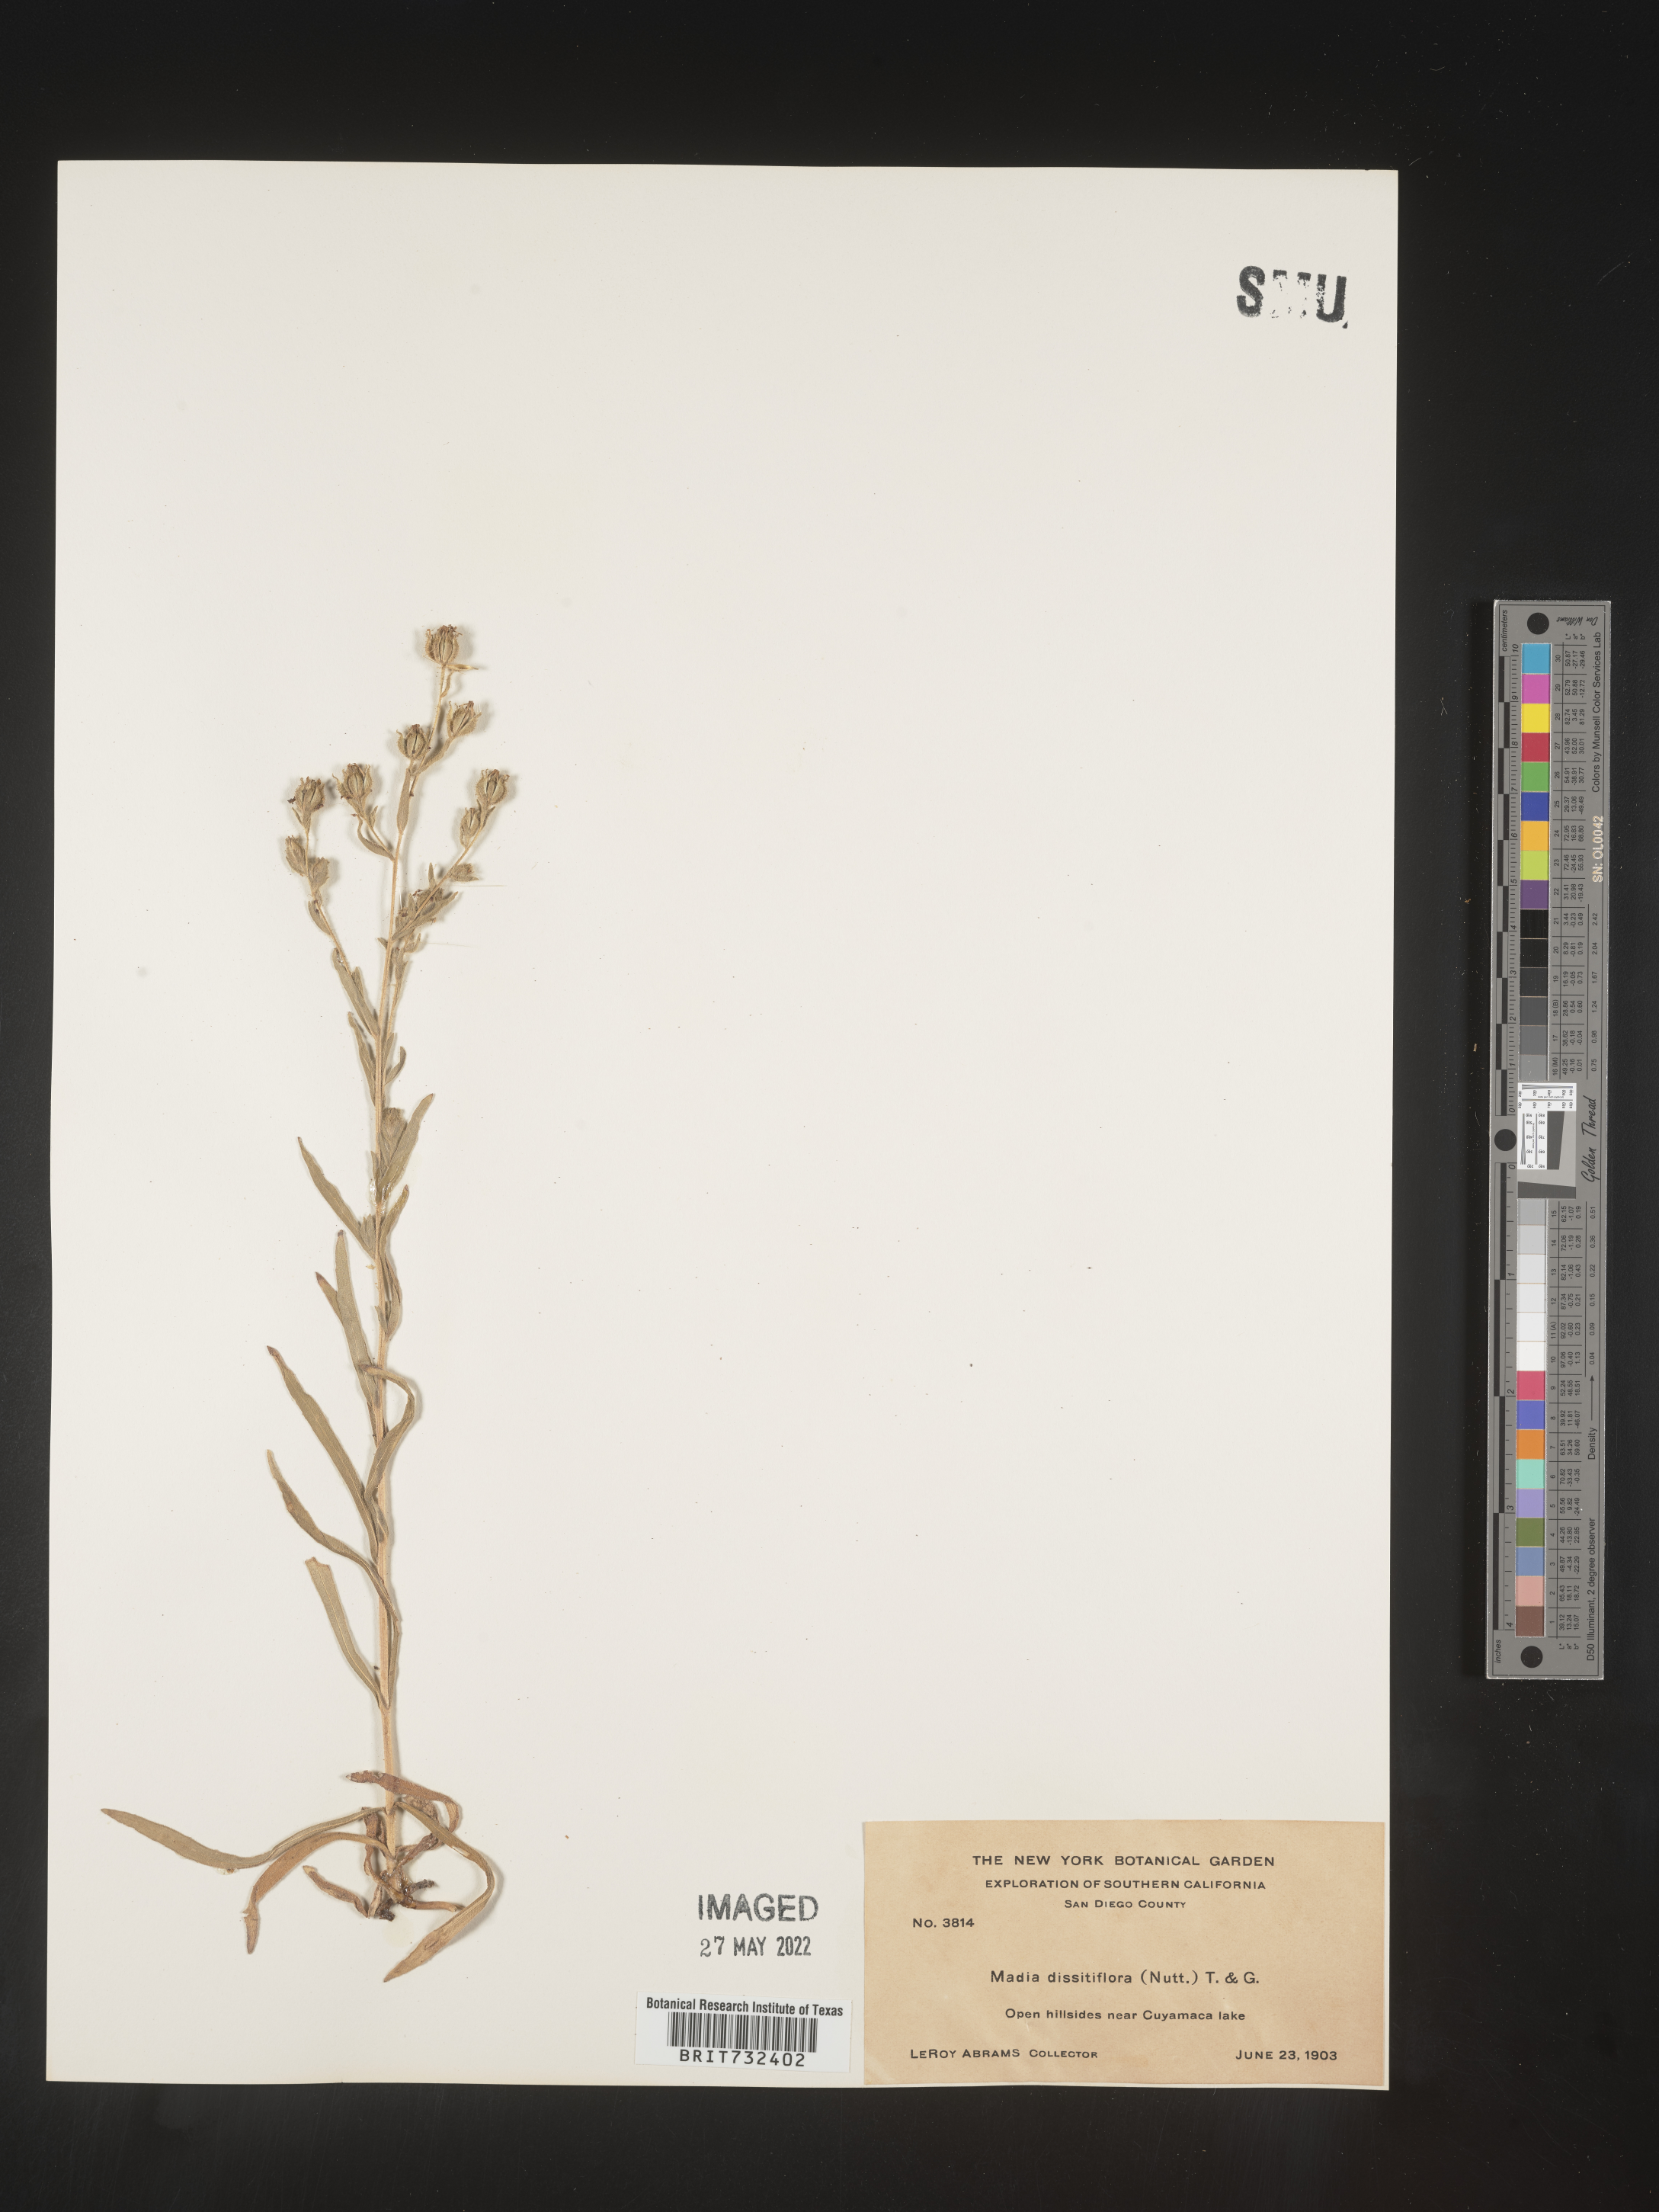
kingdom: Plantae
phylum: Tracheophyta
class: Magnoliopsida
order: Asterales
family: Asteraceae
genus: Madia
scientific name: Madia gracilis
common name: Grassy tarweed
